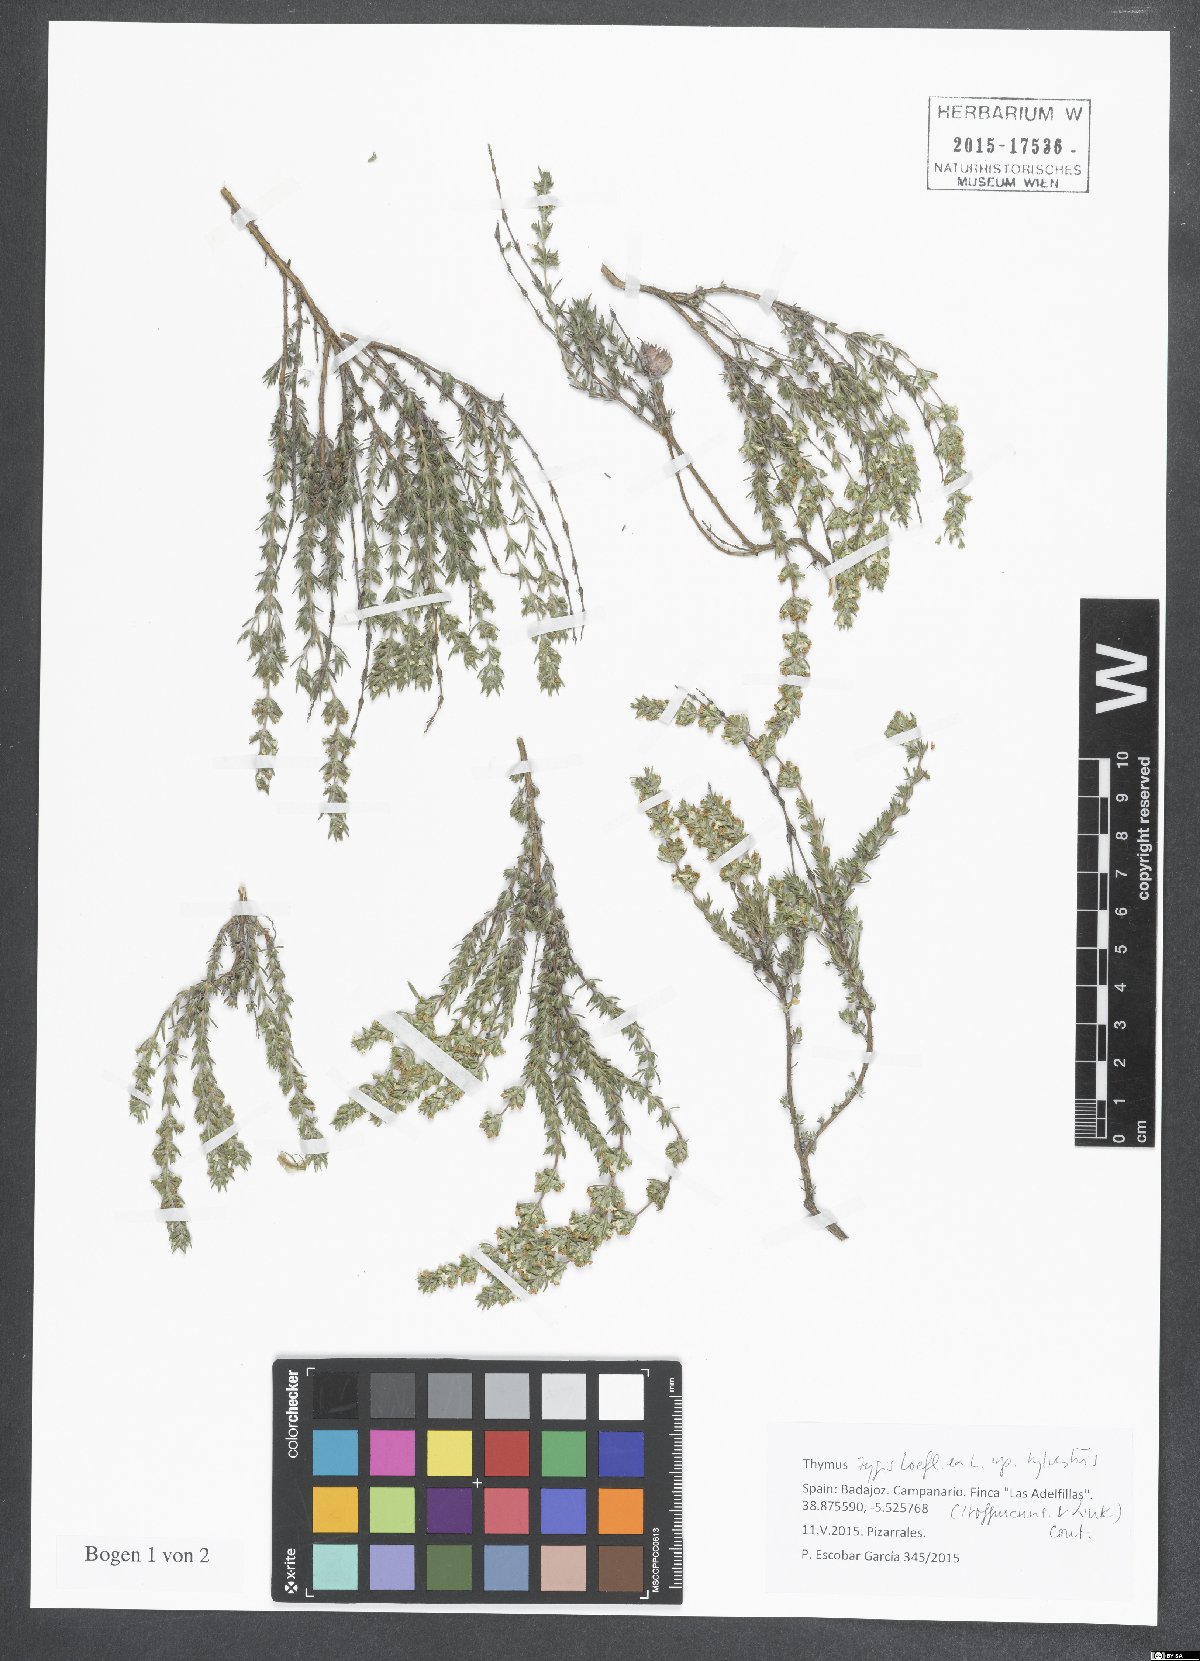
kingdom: Plantae
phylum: Tracheophyta
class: Magnoliopsida
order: Lamiales
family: Lamiaceae
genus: Thymus
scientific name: Thymus zygis
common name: White thyme
